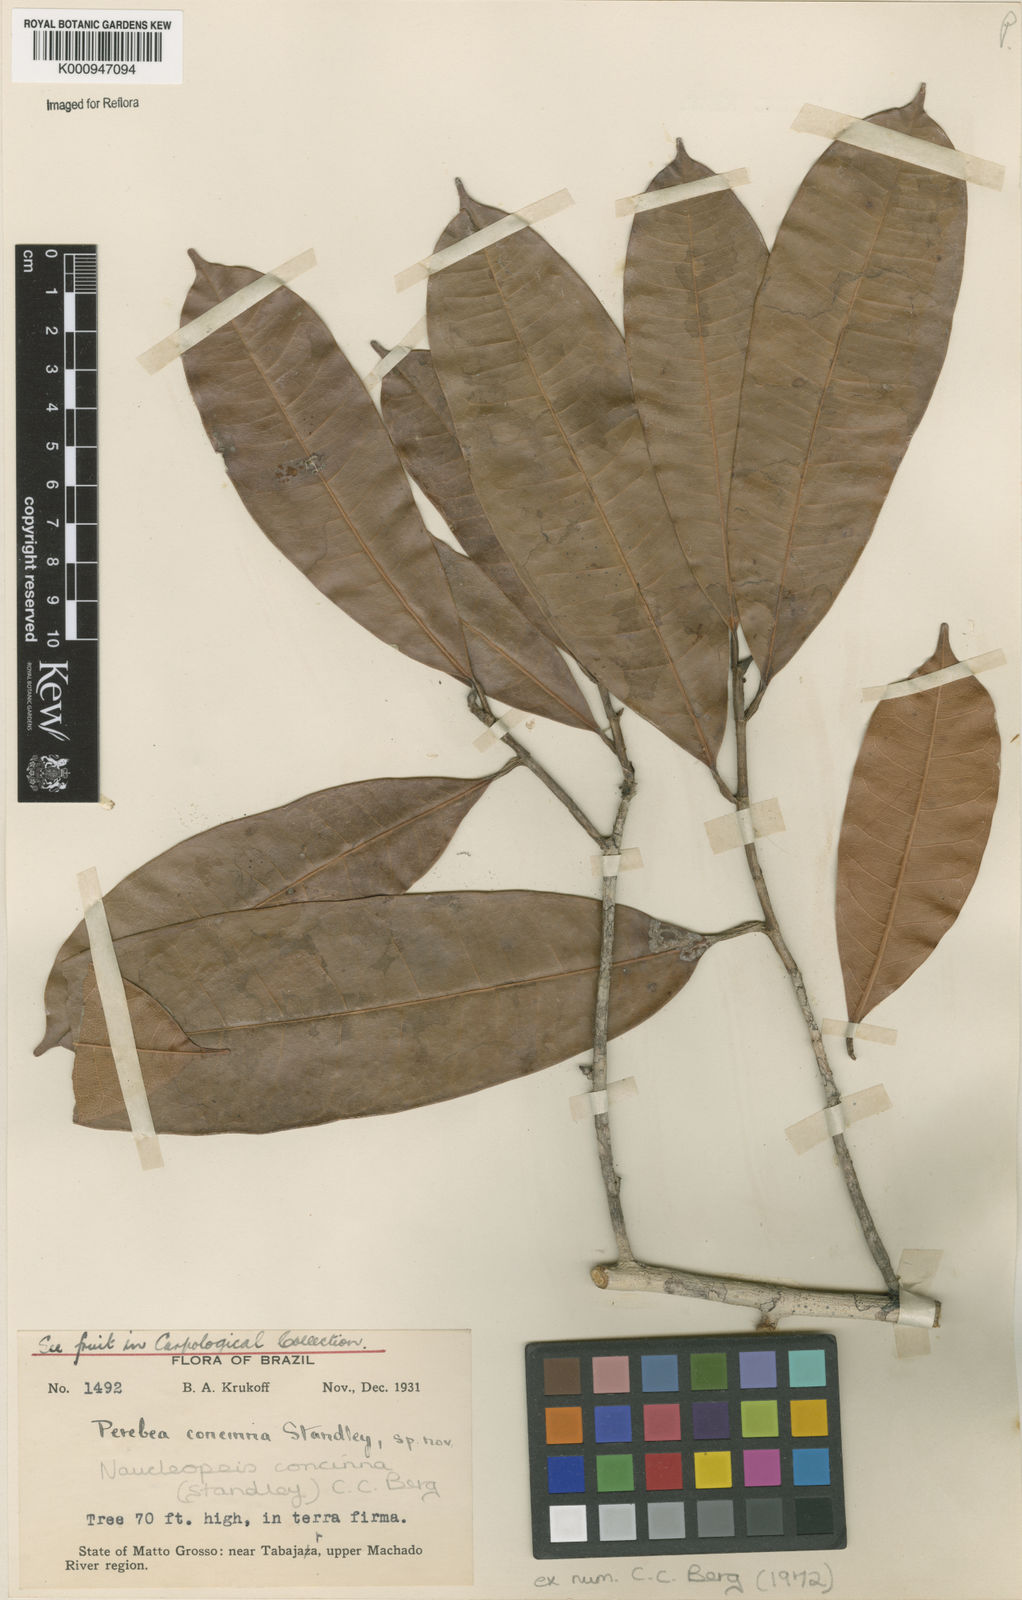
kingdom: Plantae
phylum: Tracheophyta
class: Magnoliopsida
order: Rosales
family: Moraceae
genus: Naucleopsis
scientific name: Naucleopsis concinna
